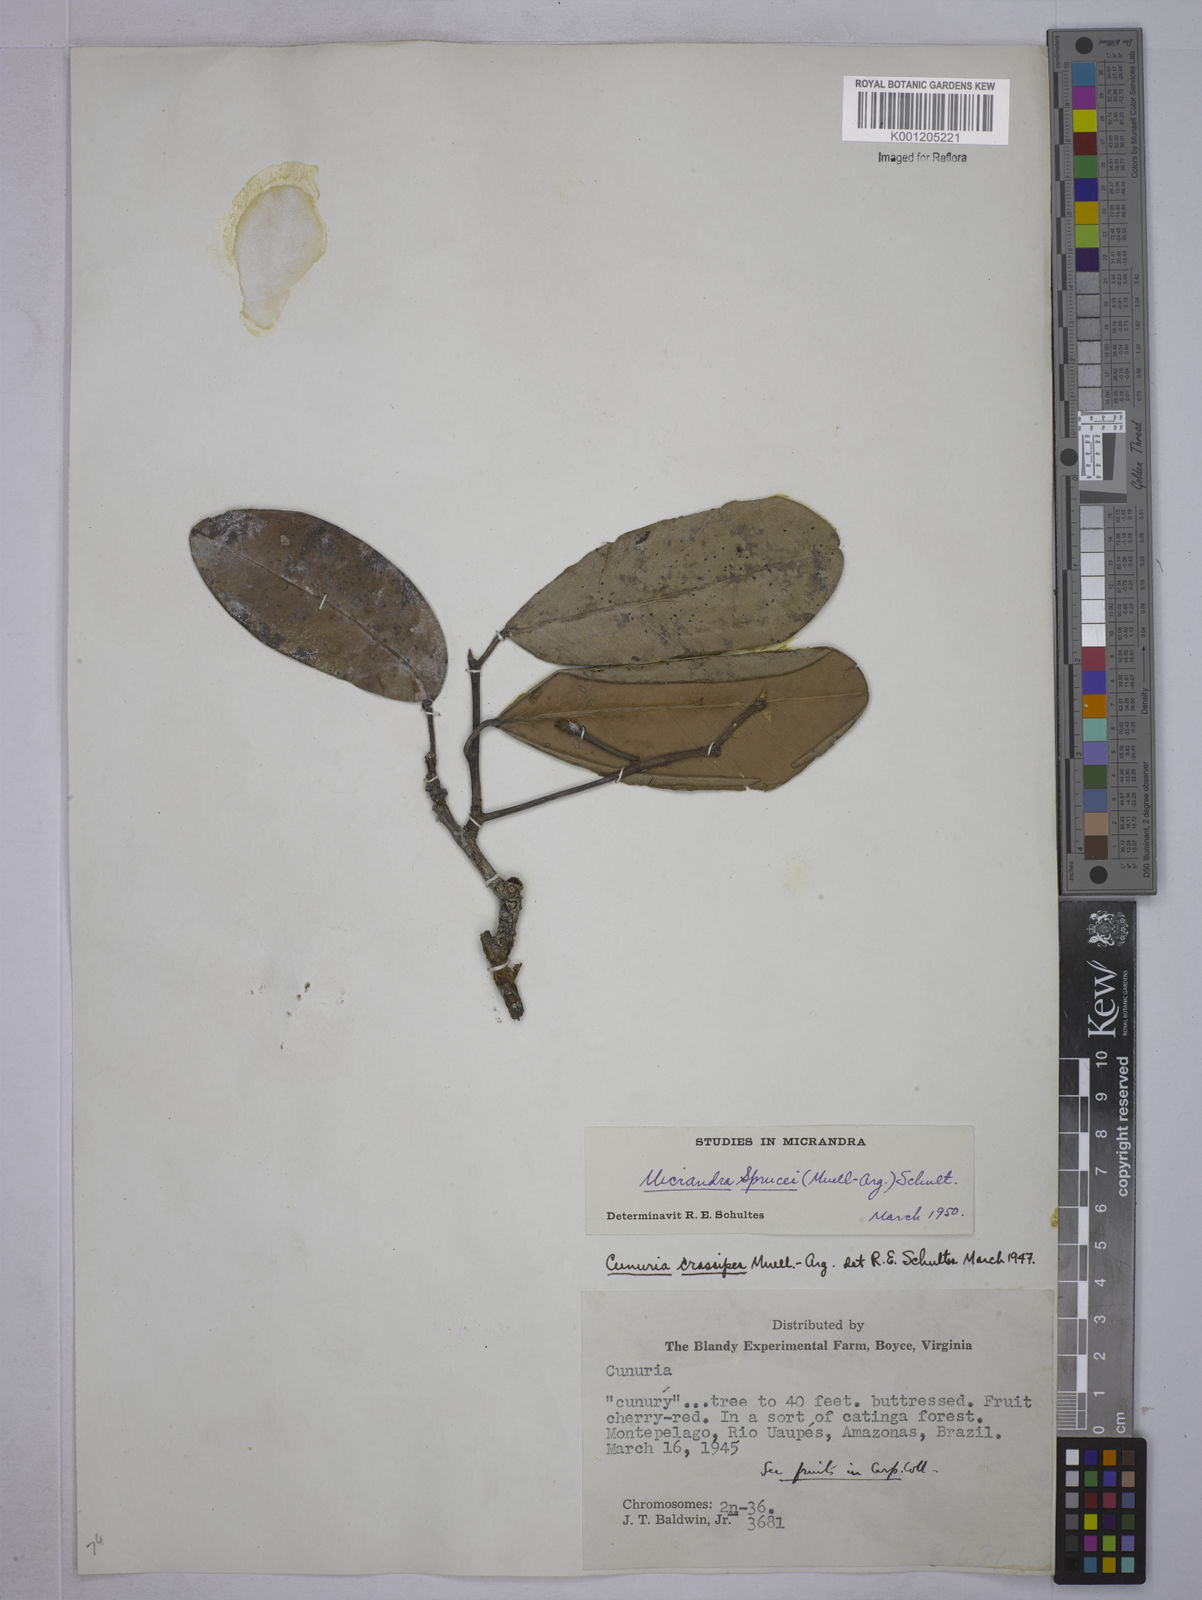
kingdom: Plantae
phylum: Tracheophyta
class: Magnoliopsida
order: Malpighiales
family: Euphorbiaceae
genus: Micrandra
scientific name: Micrandra
